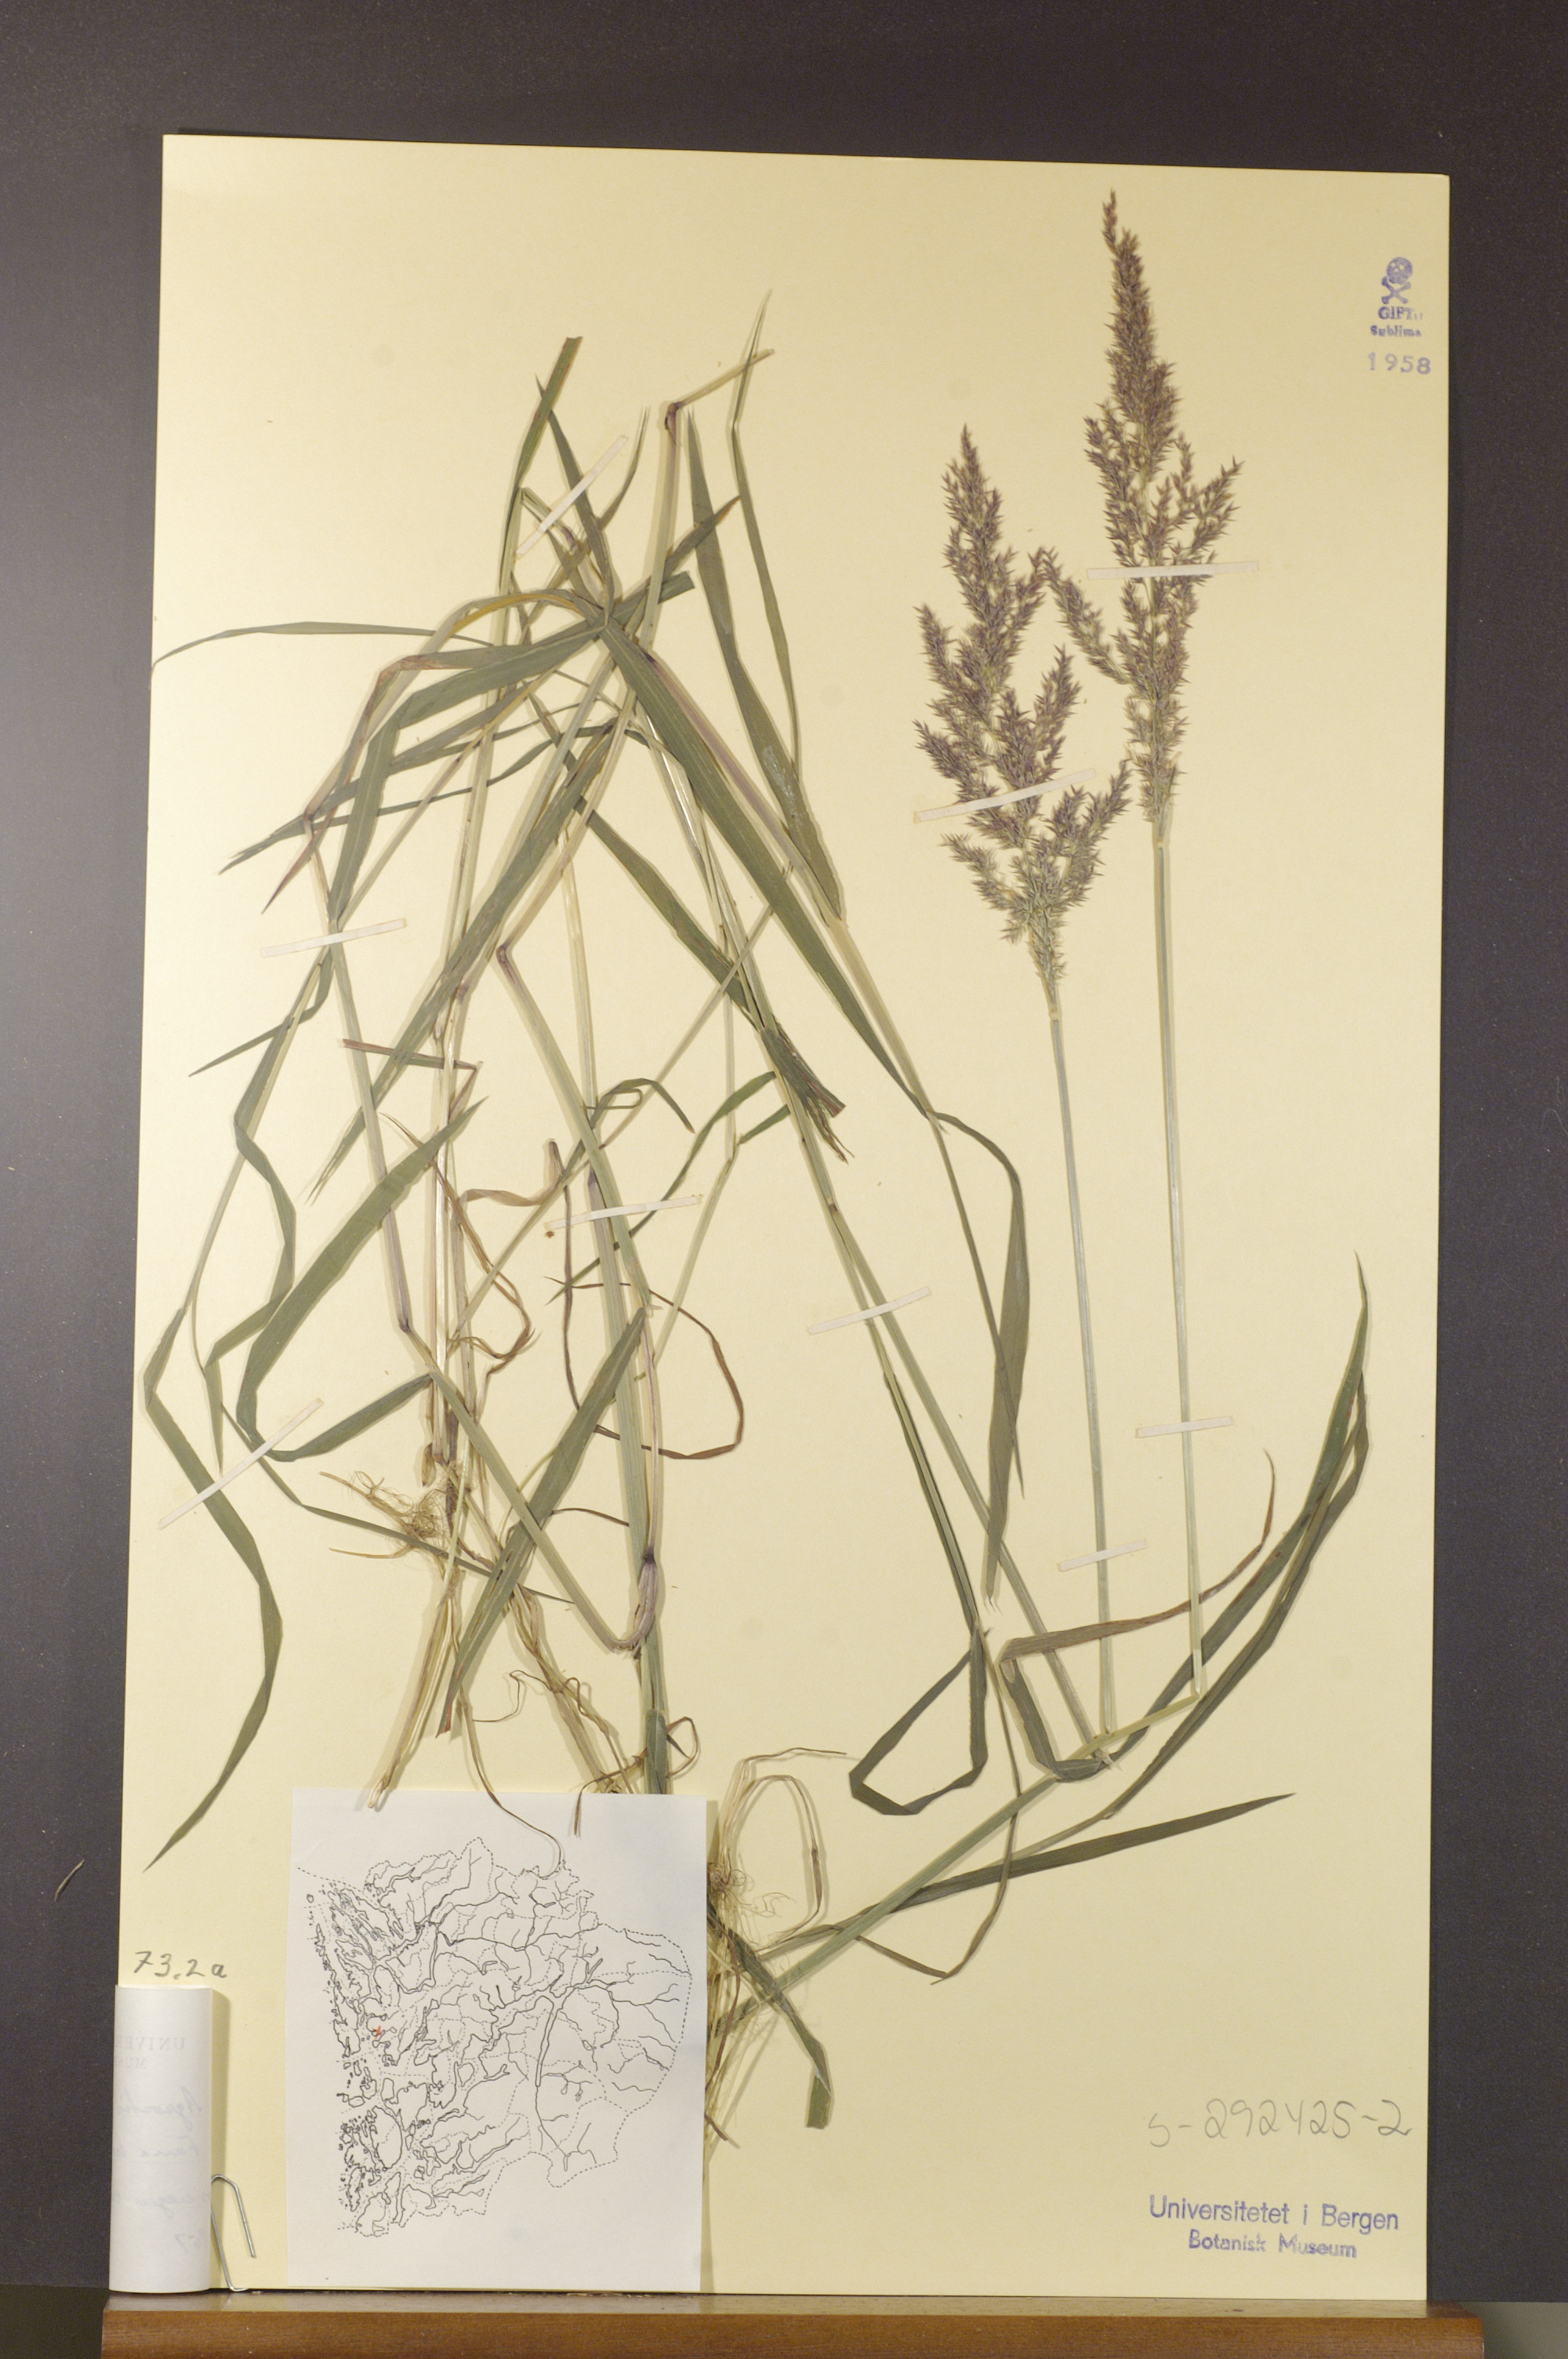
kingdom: Plantae
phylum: Tracheophyta
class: Liliopsida
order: Poales
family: Poaceae
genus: Agrostis
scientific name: Agrostis gigantea
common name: Black bent
